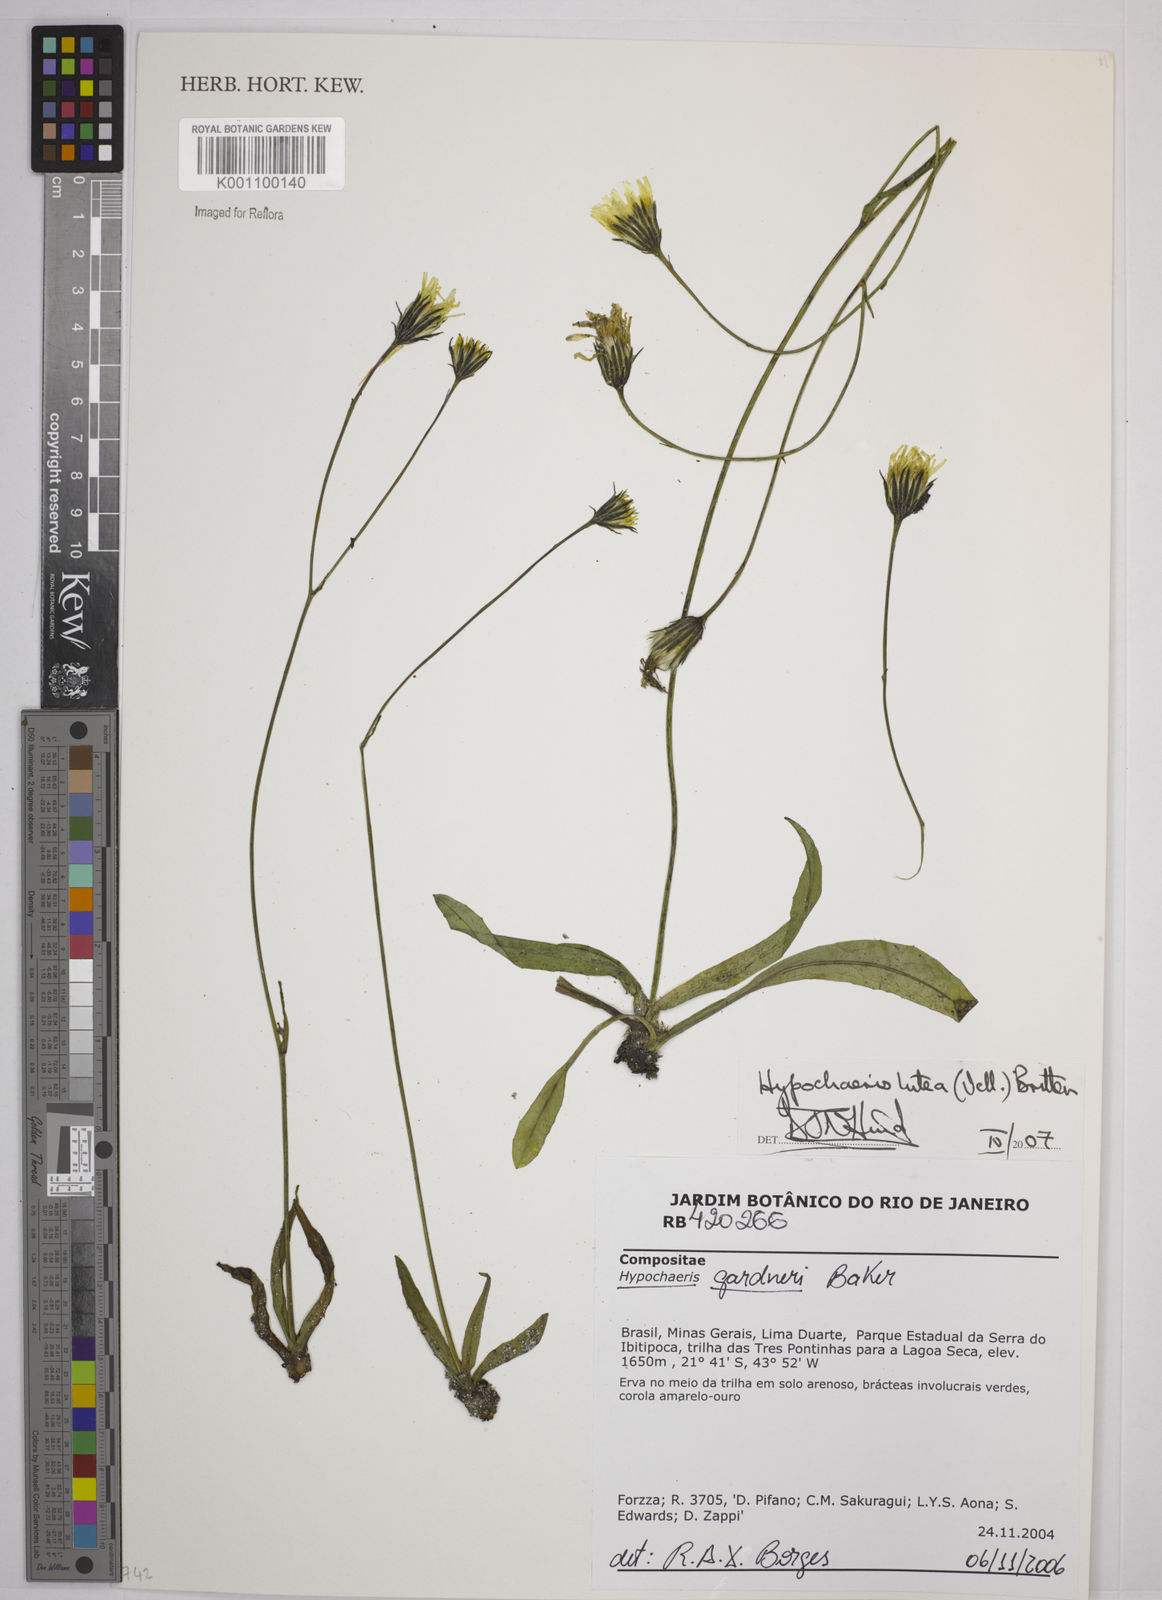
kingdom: Plantae
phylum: Tracheophyta
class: Magnoliopsida
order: Asterales
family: Asteraceae
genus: Hypochaeris
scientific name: Hypochaeris
